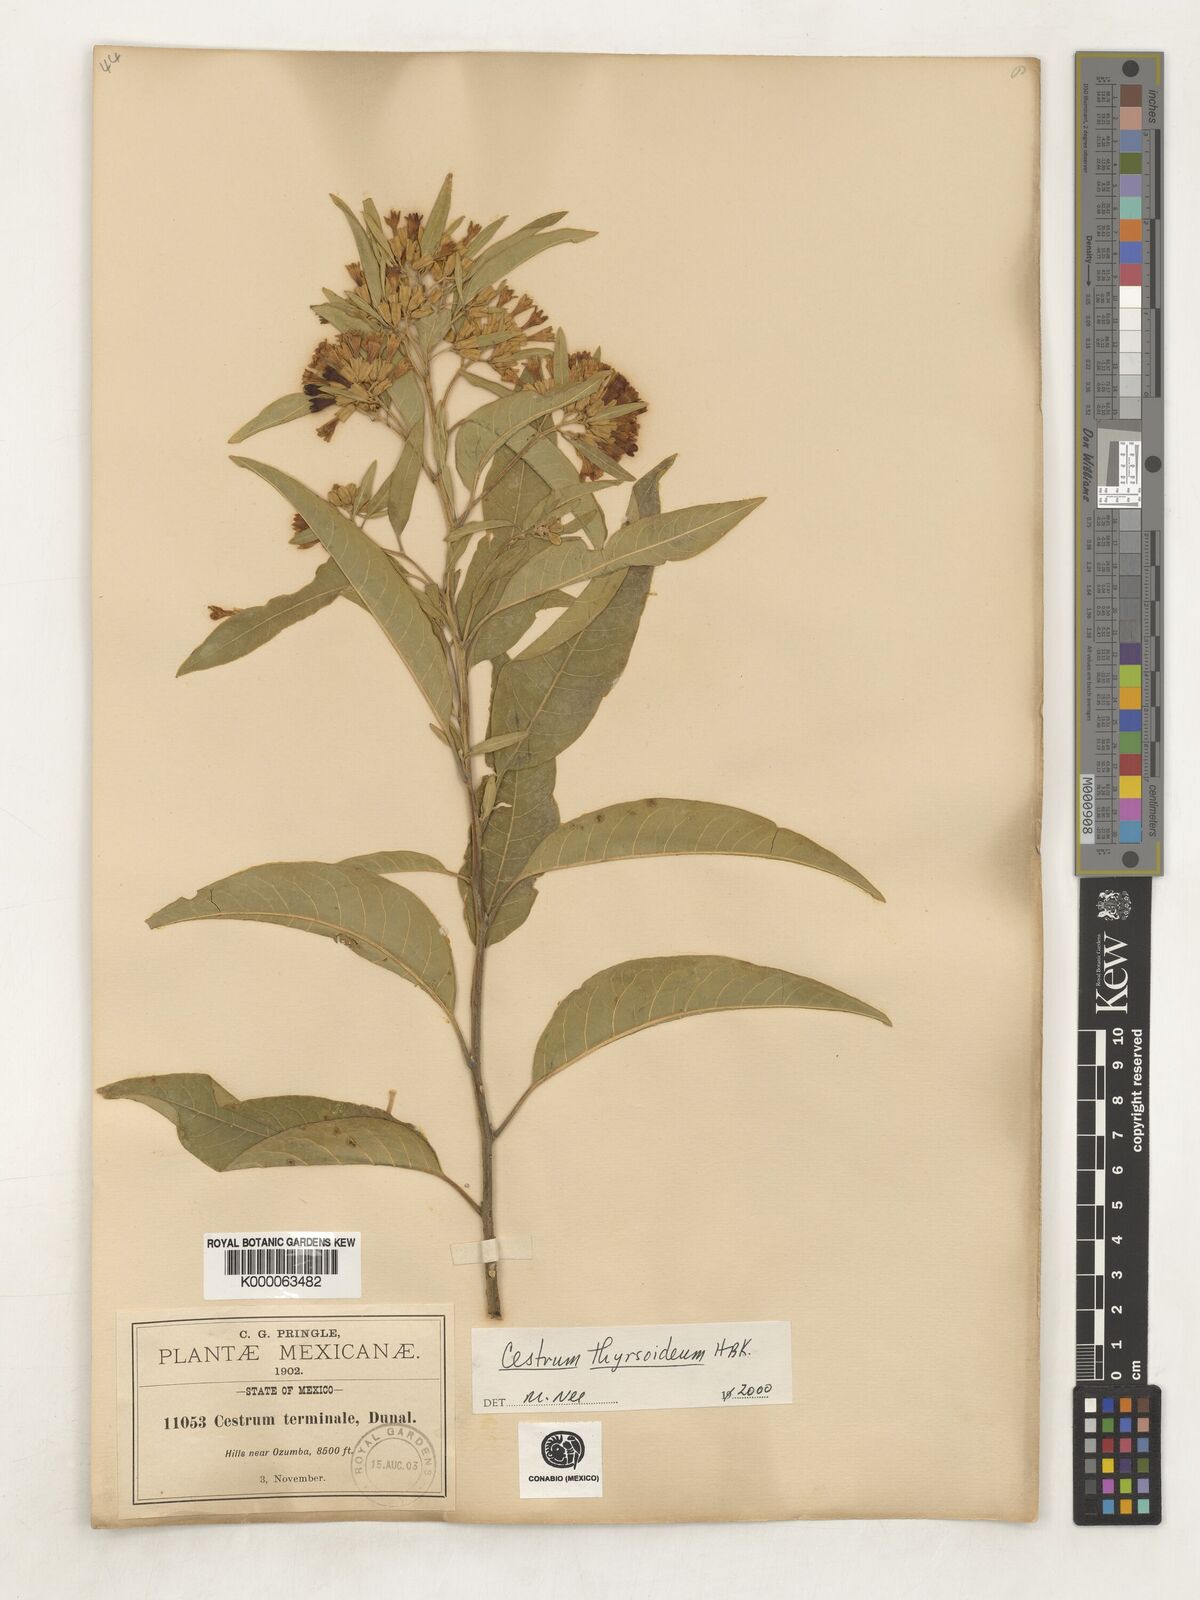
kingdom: Plantae
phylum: Tracheophyta
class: Magnoliopsida
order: Solanales
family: Solanaceae
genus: Cestrum
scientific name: Cestrum
